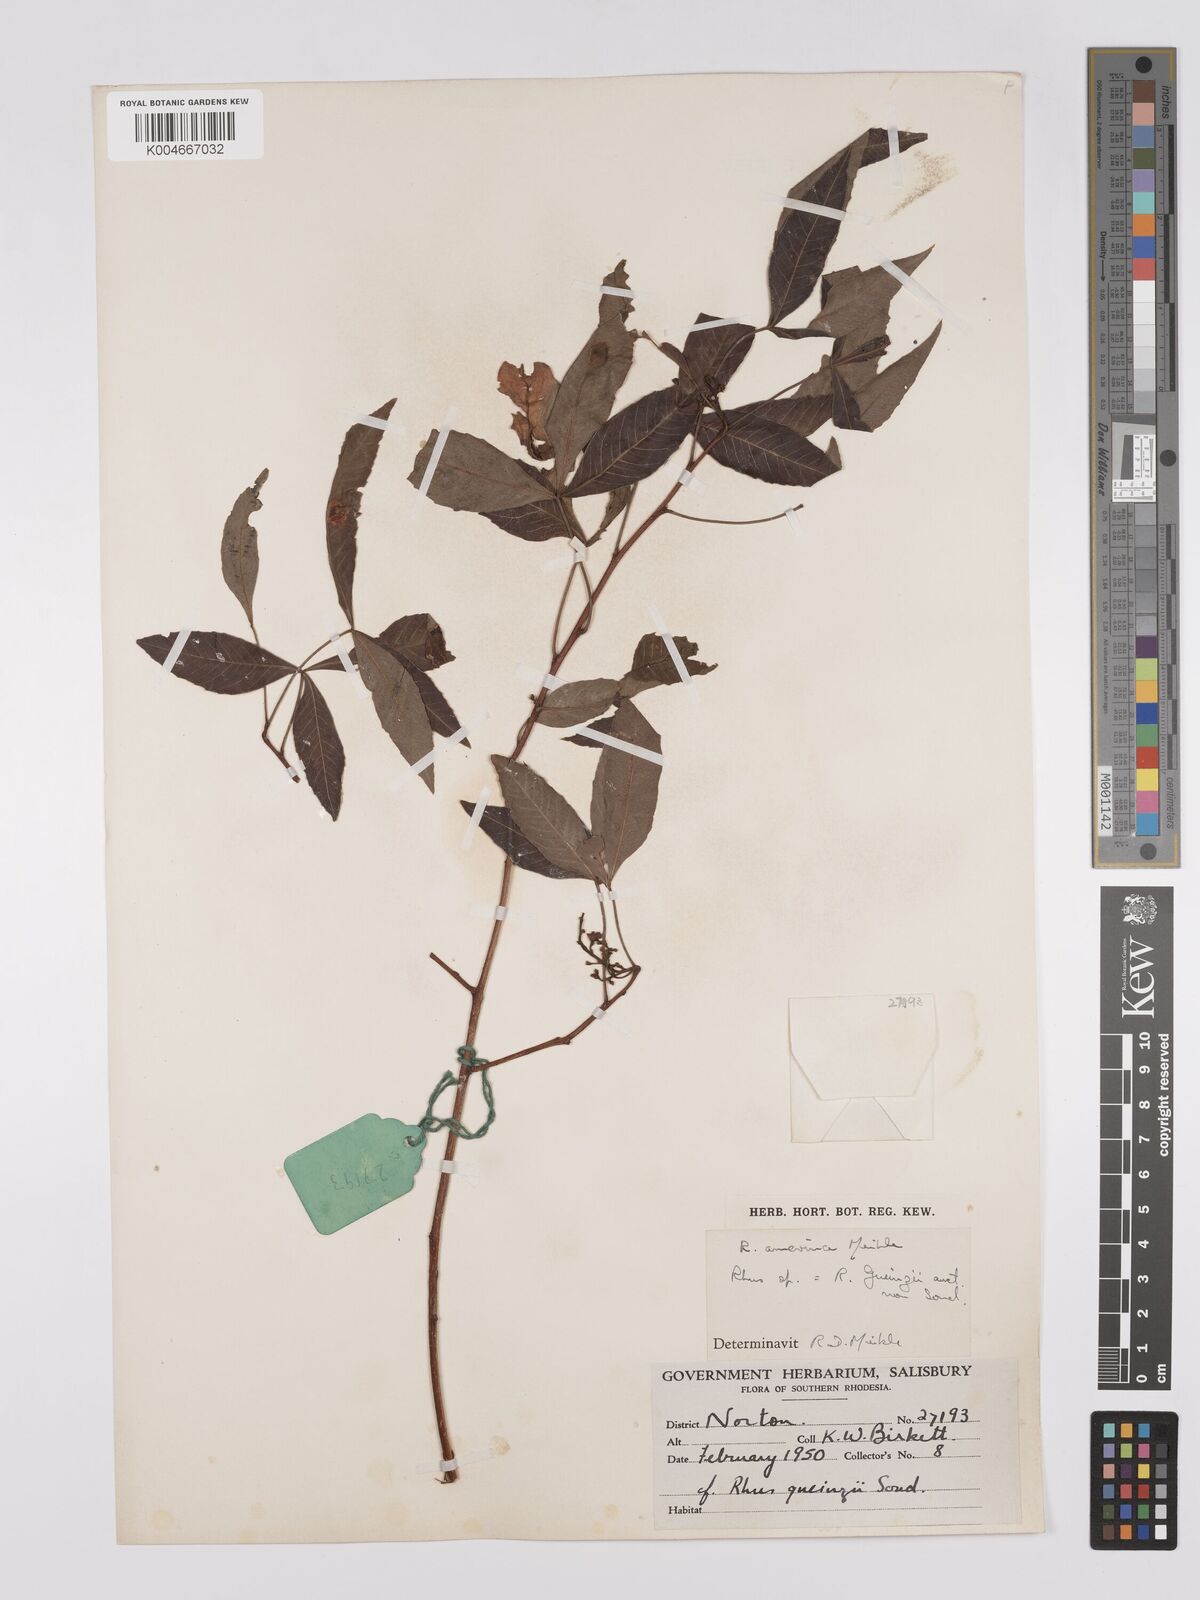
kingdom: Plantae
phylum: Tracheophyta
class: Magnoliopsida
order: Sapindales
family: Anacardiaceae
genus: Searsia
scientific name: Searsia leptodictya
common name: Mountain karee
